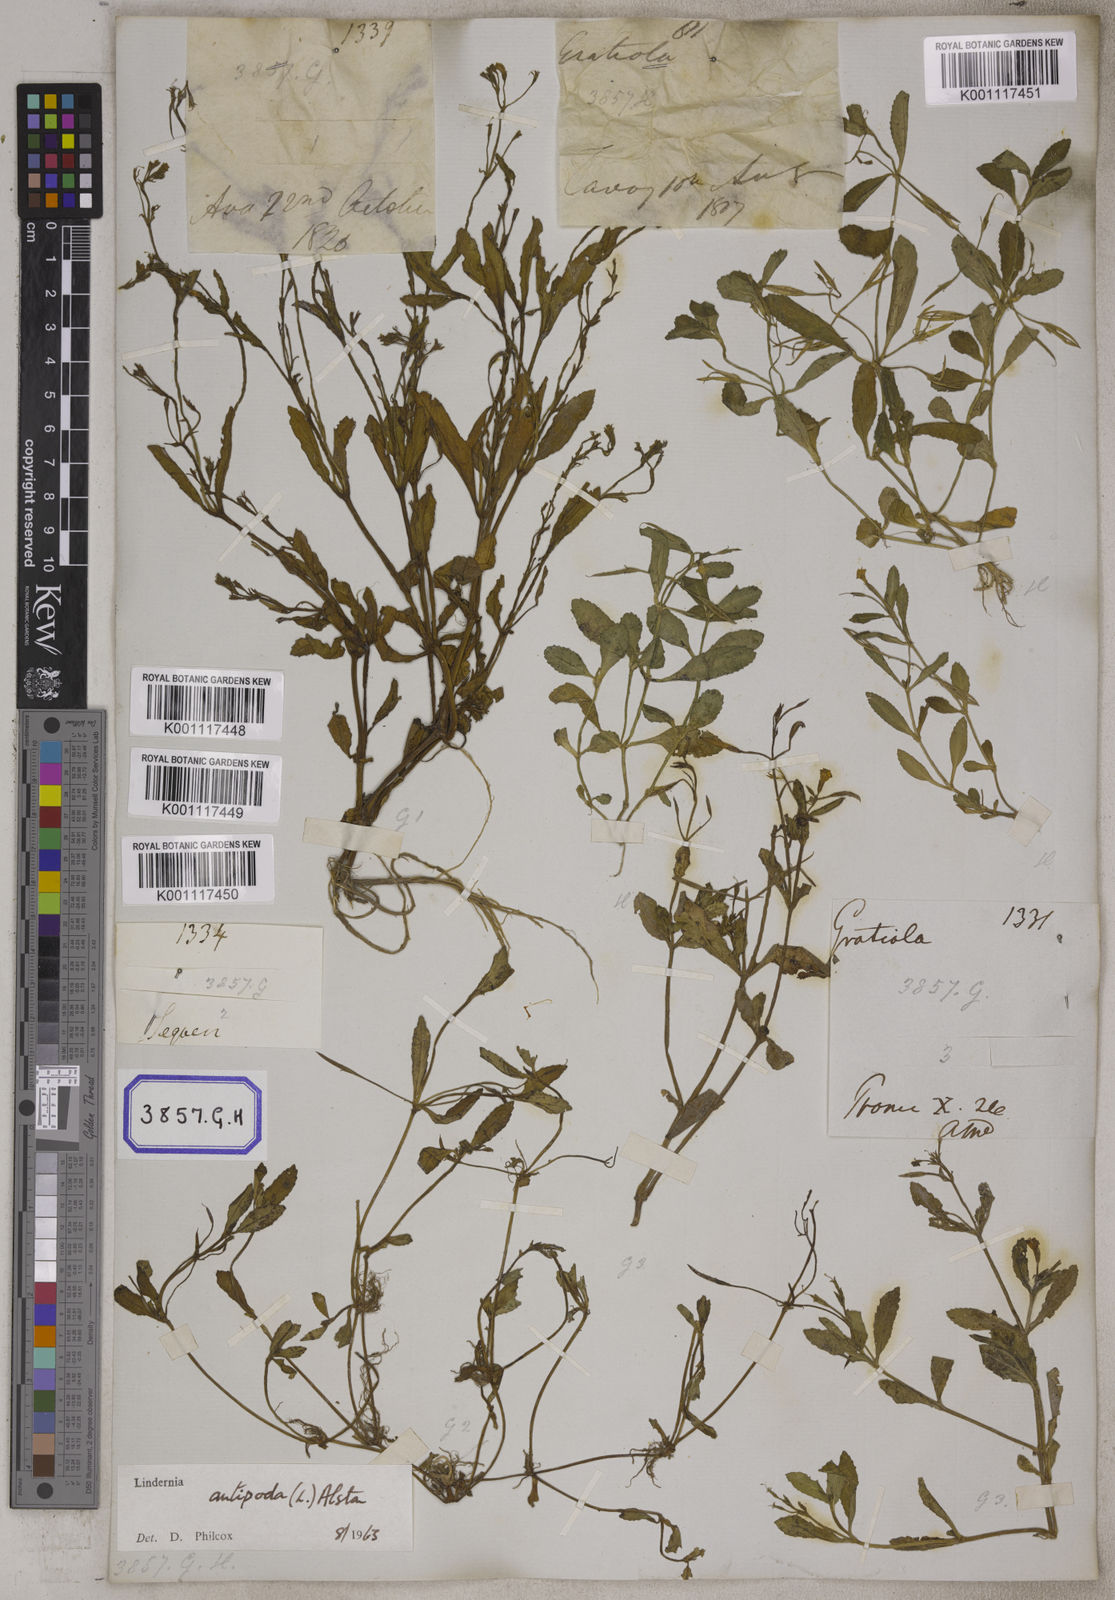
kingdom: Plantae
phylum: Tracheophyta
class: Magnoliopsida
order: Lamiales
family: Linderniaceae
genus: Bonnaya
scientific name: Bonnaya veronicifolia
